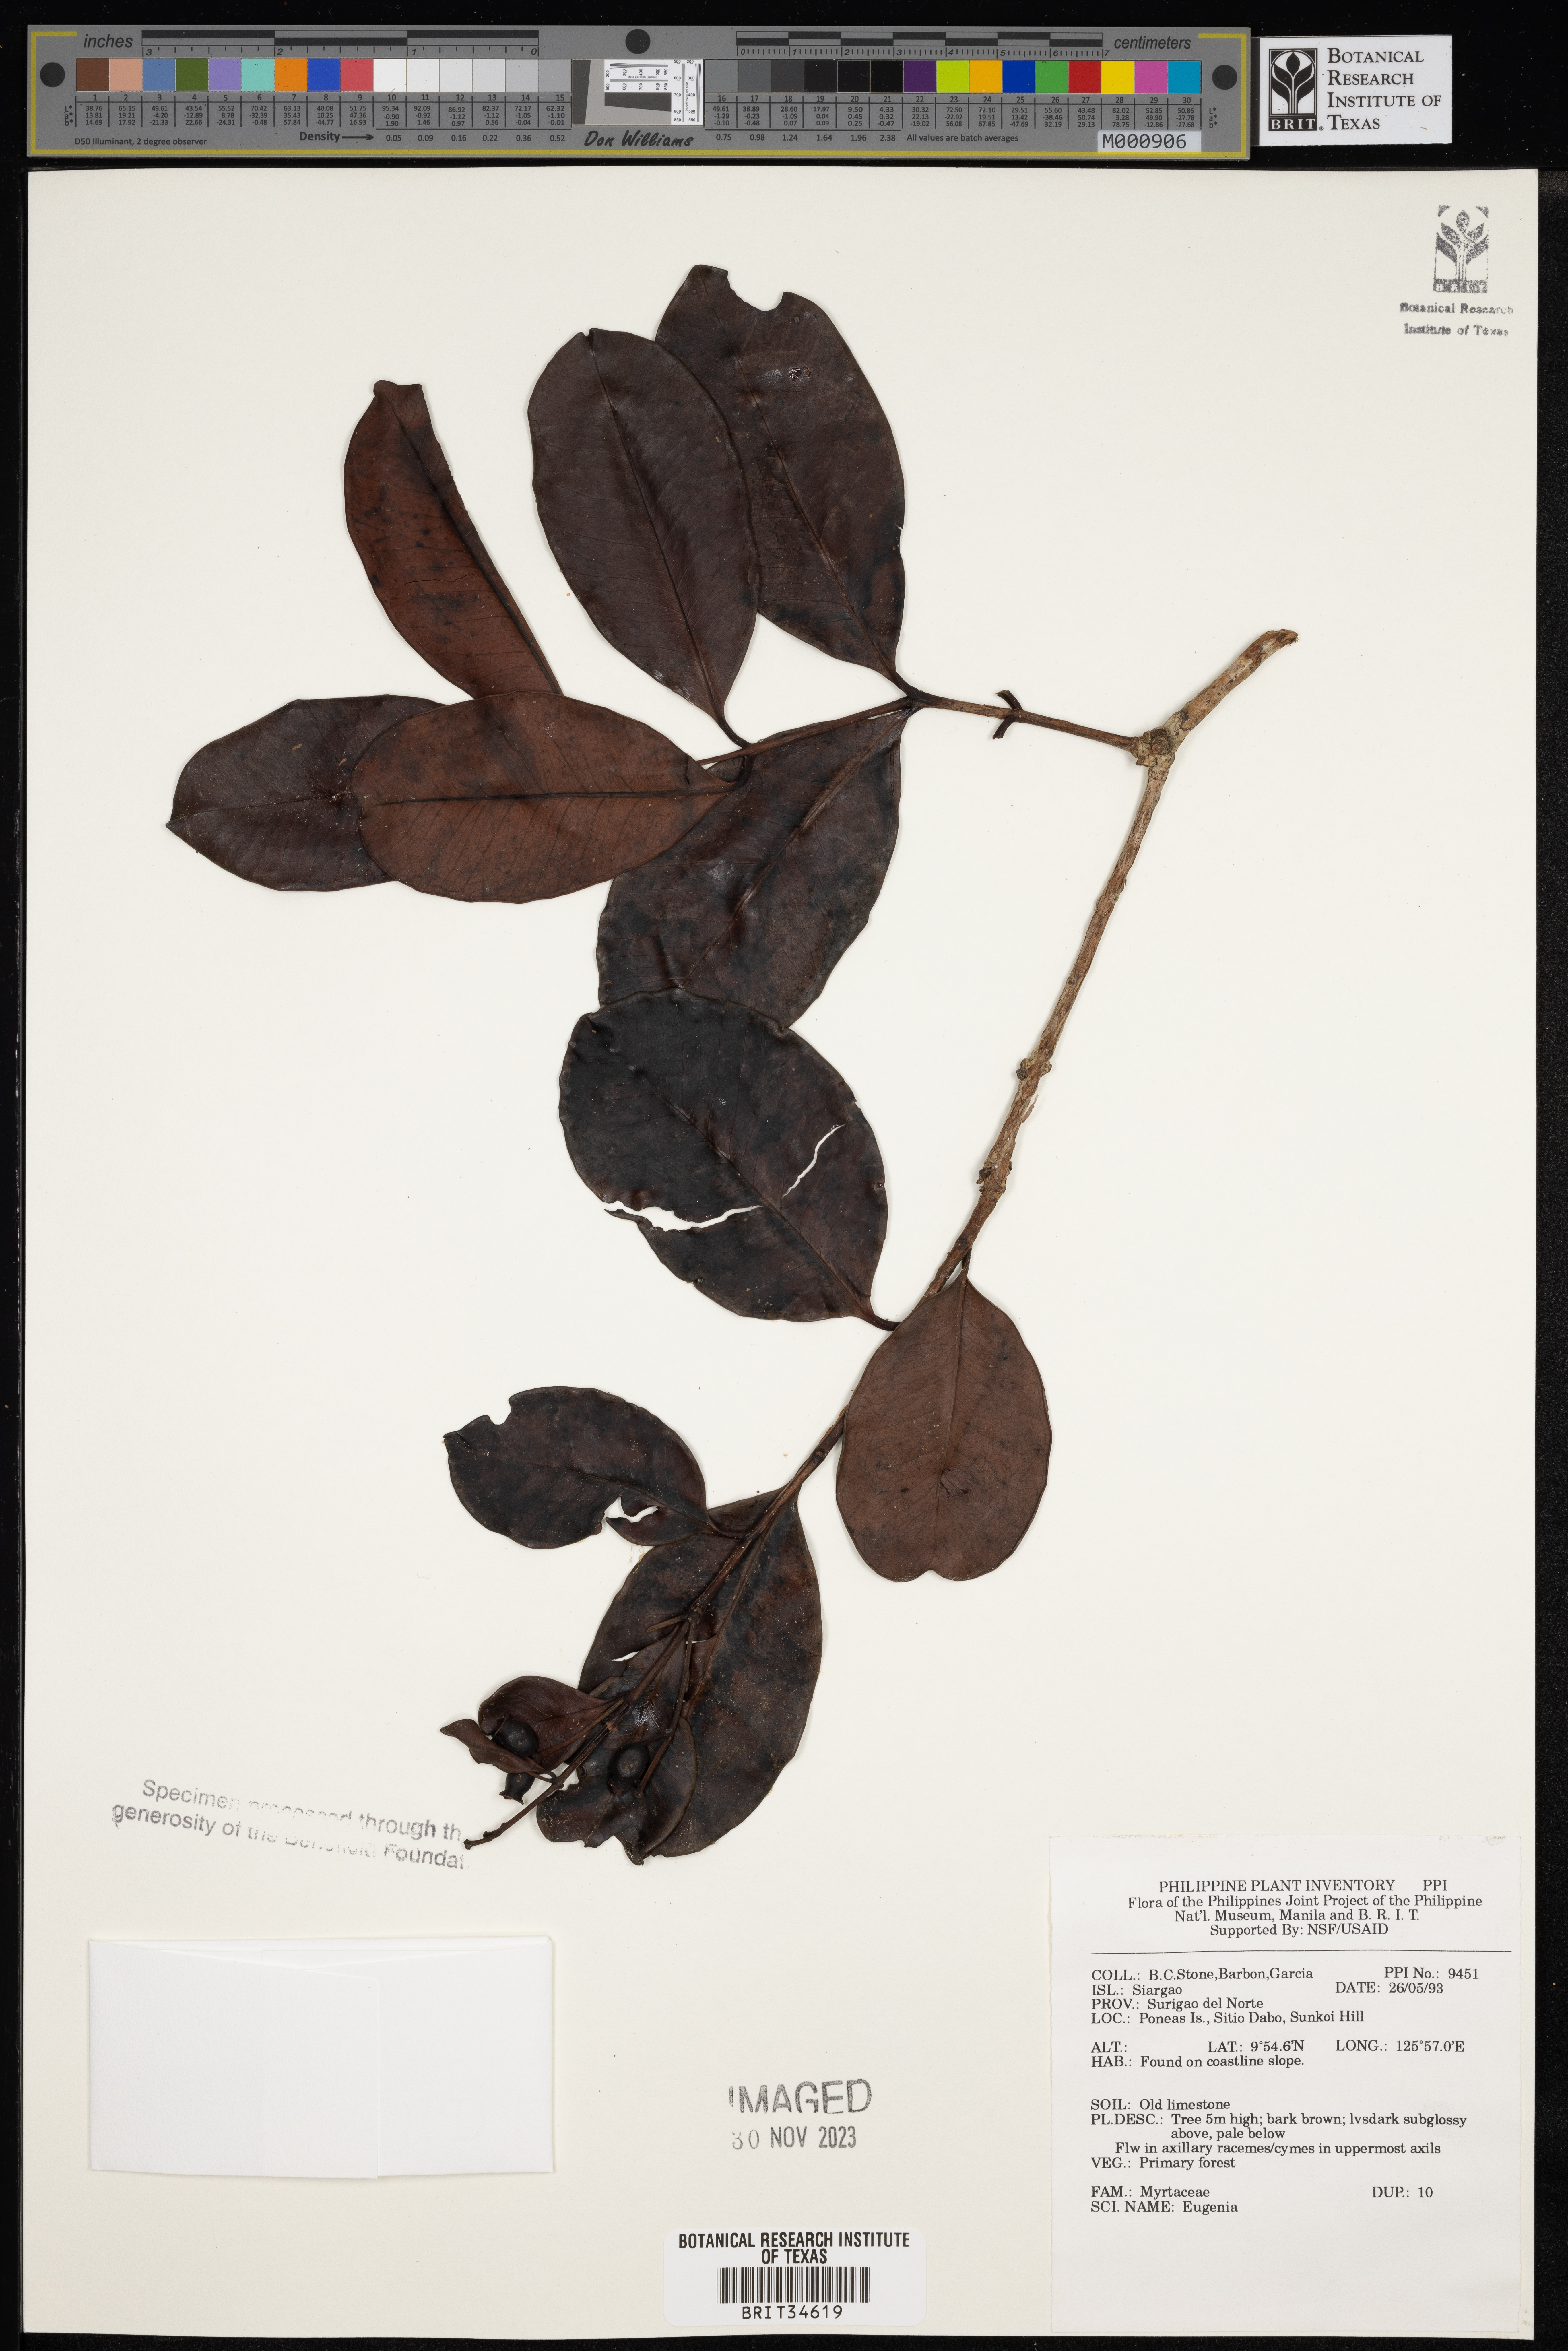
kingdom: Plantae
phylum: Tracheophyta
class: Magnoliopsida
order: Myrtales
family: Myrtaceae
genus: Eugenia
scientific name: Eugenia
